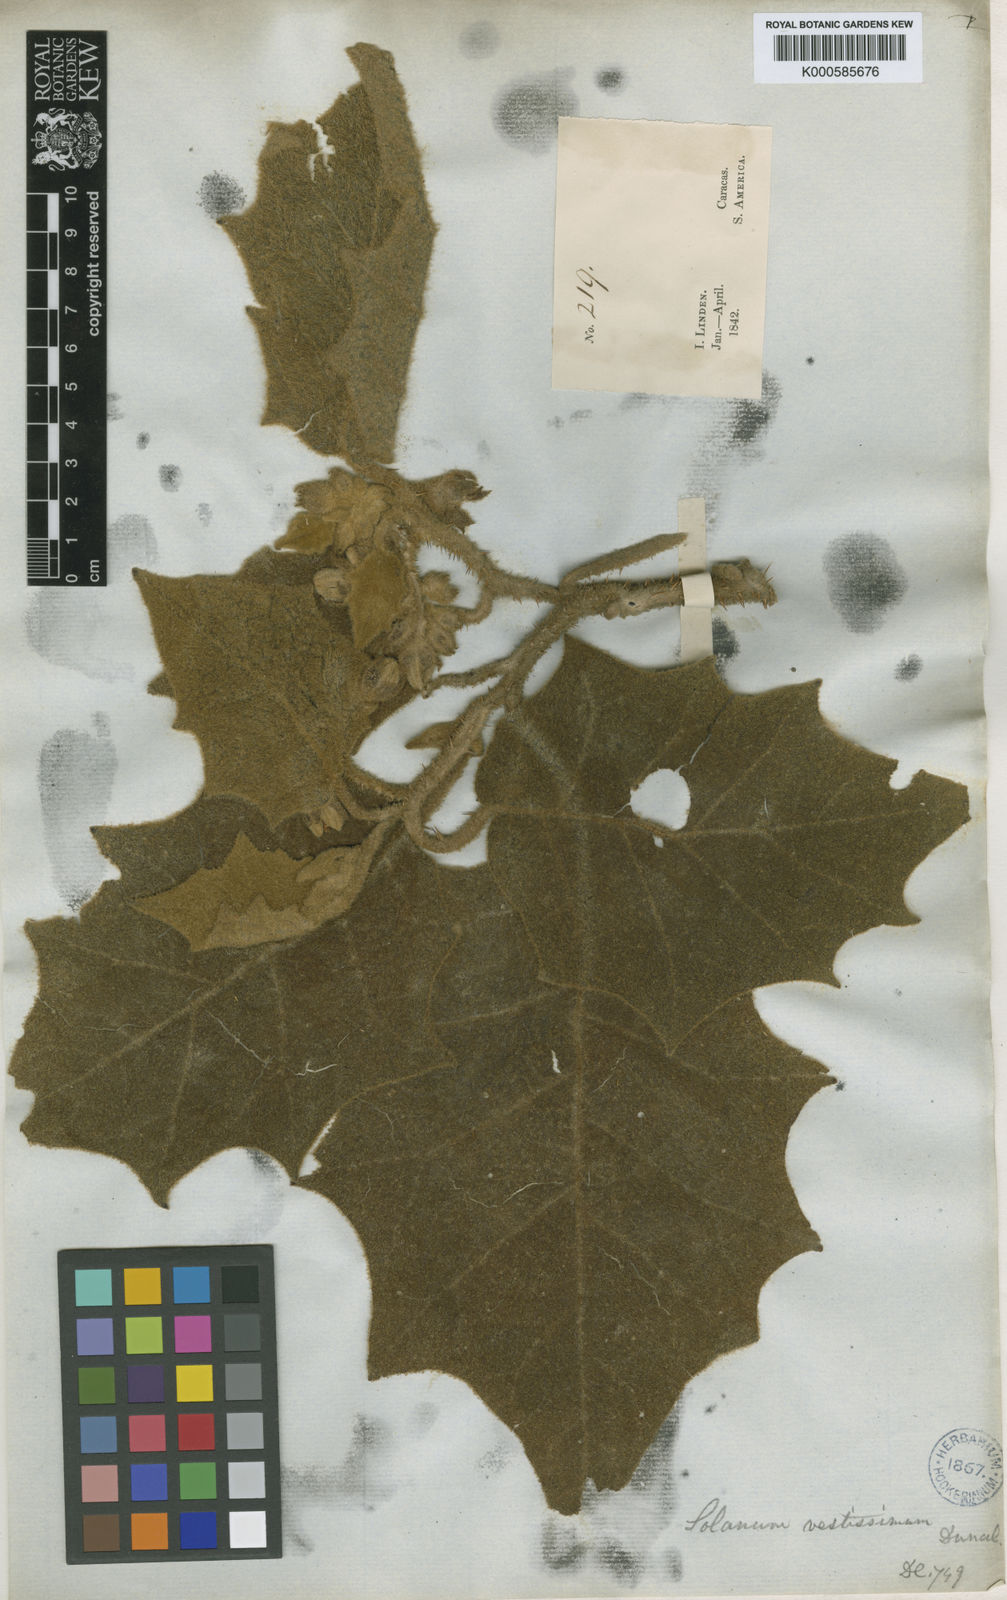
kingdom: Plantae
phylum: Tracheophyta
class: Magnoliopsida
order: Solanales
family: Solanaceae
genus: Solanum
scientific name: Solanum velutissimum
